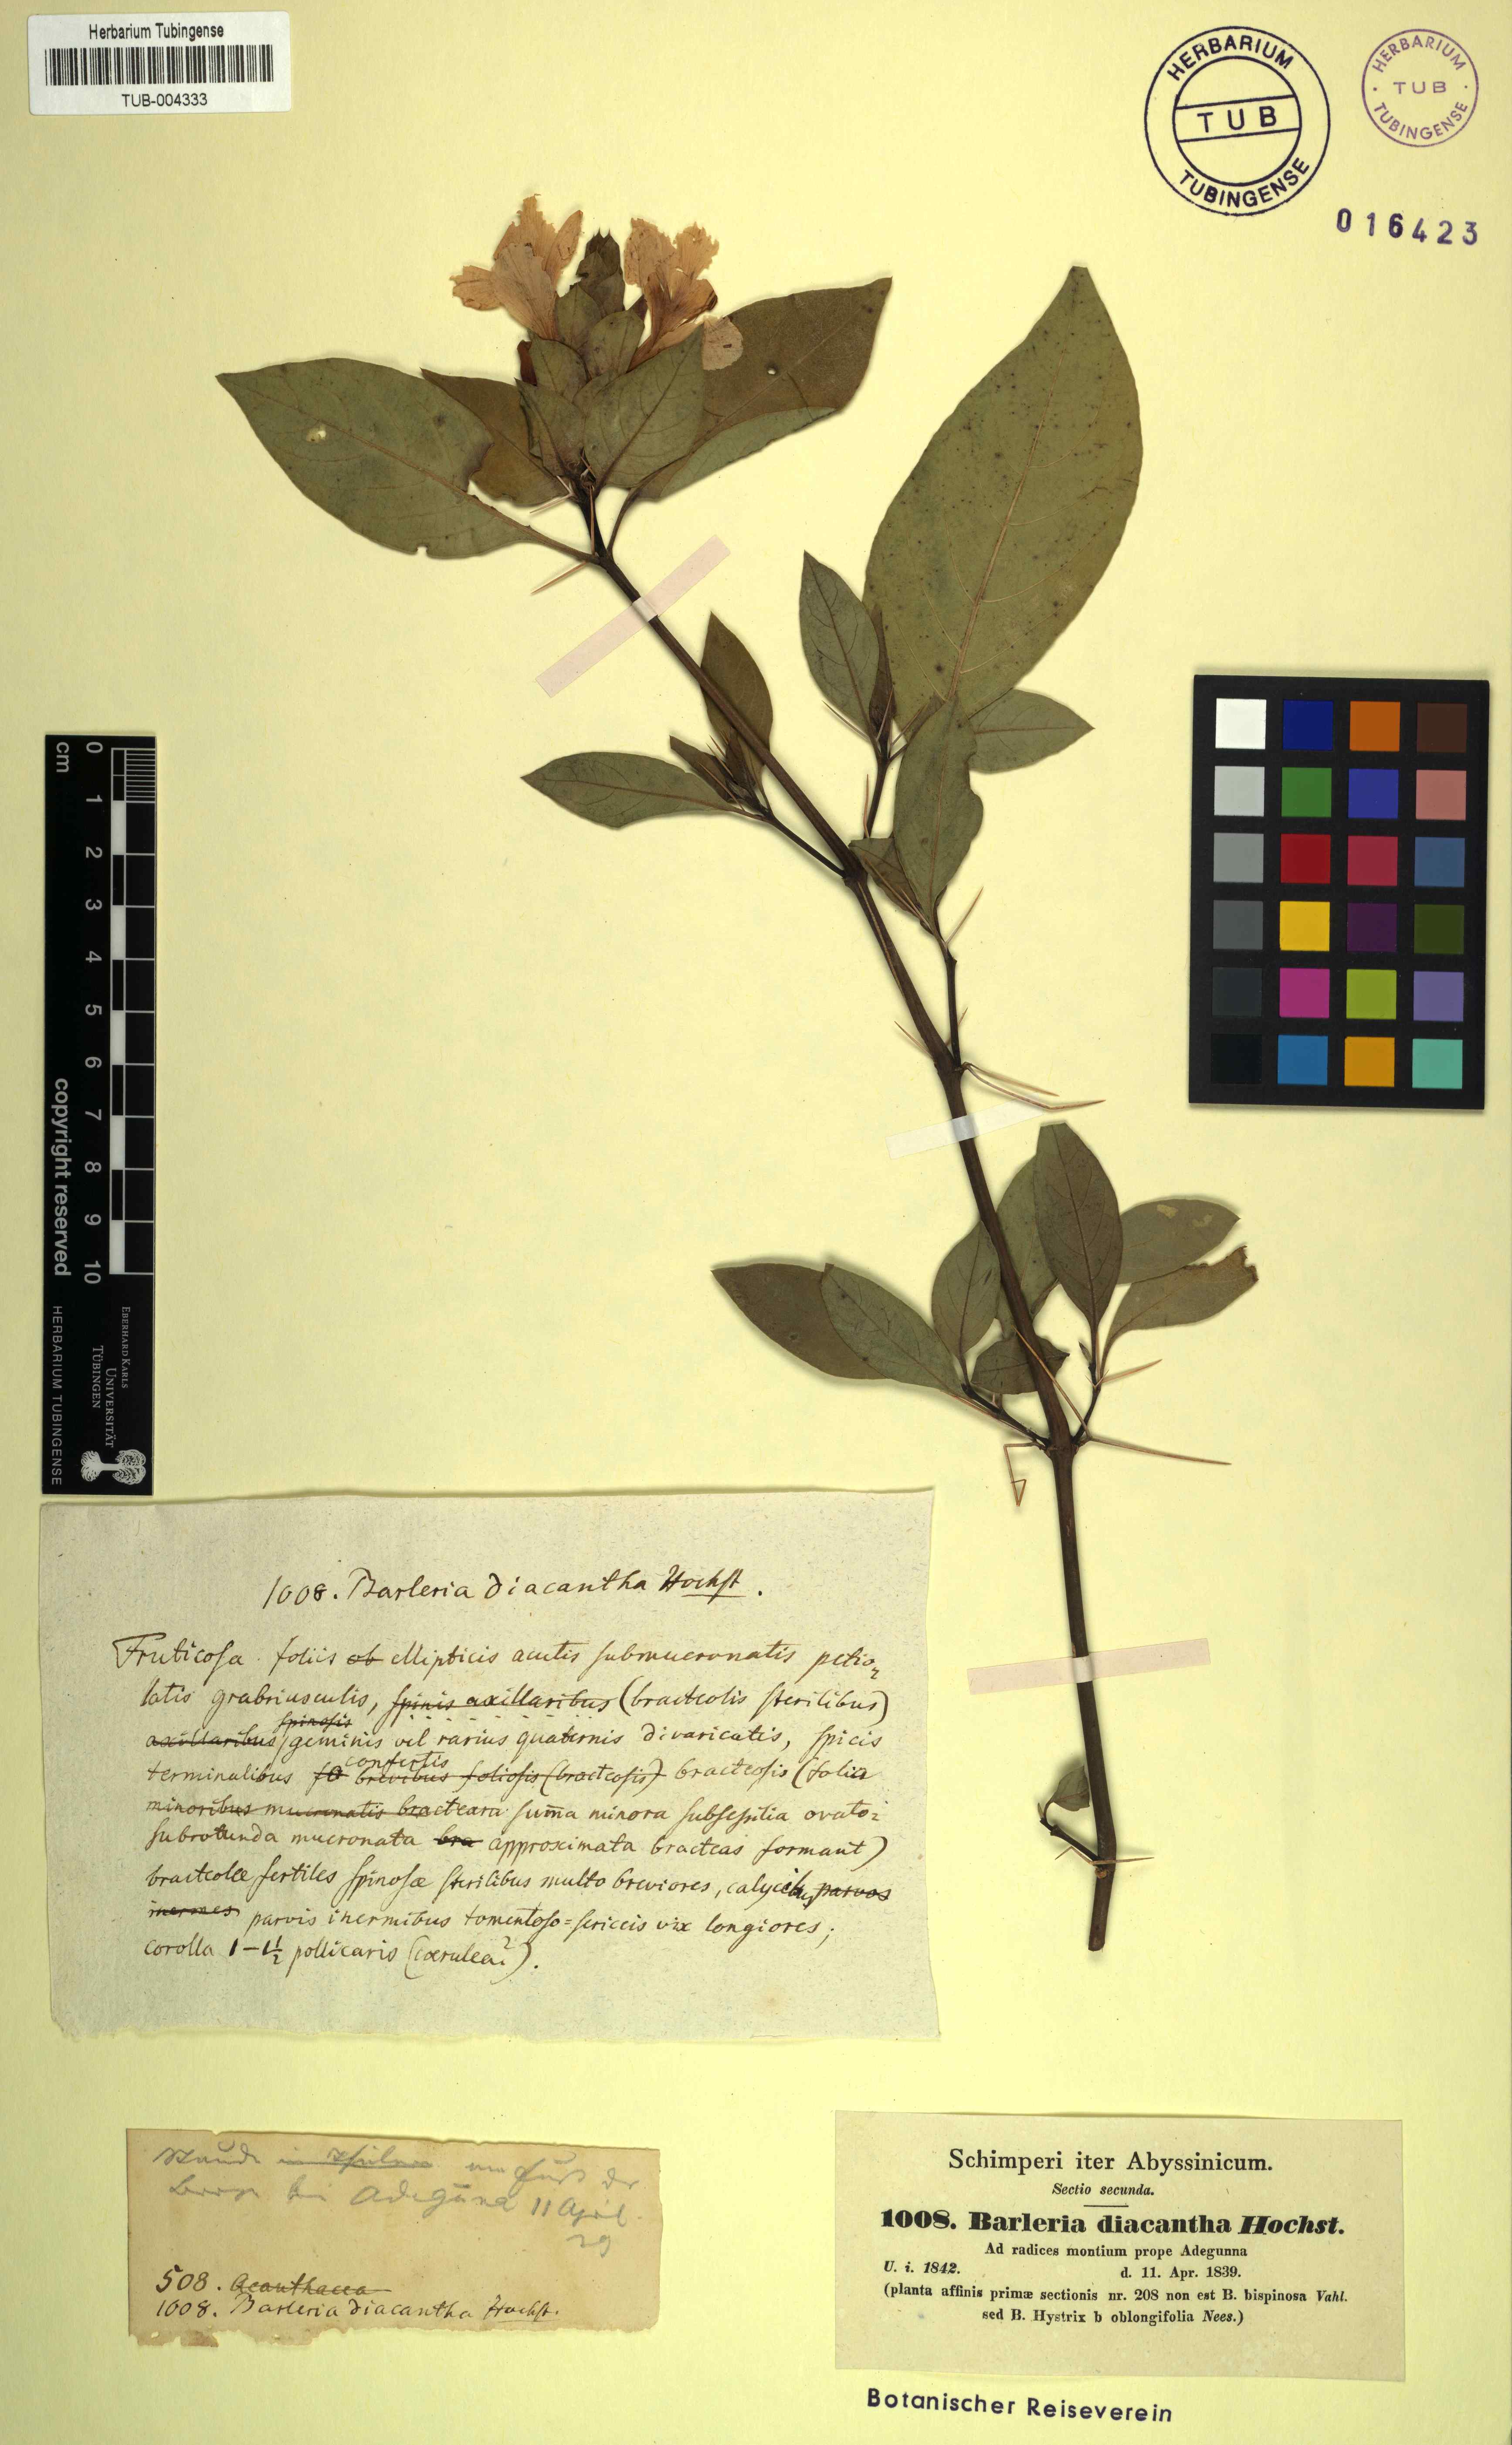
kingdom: Plantae
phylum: Tracheophyta
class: Magnoliopsida
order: Lamiales
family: Acanthaceae
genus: Barleria
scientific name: Barleria prionitis
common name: Barleria
